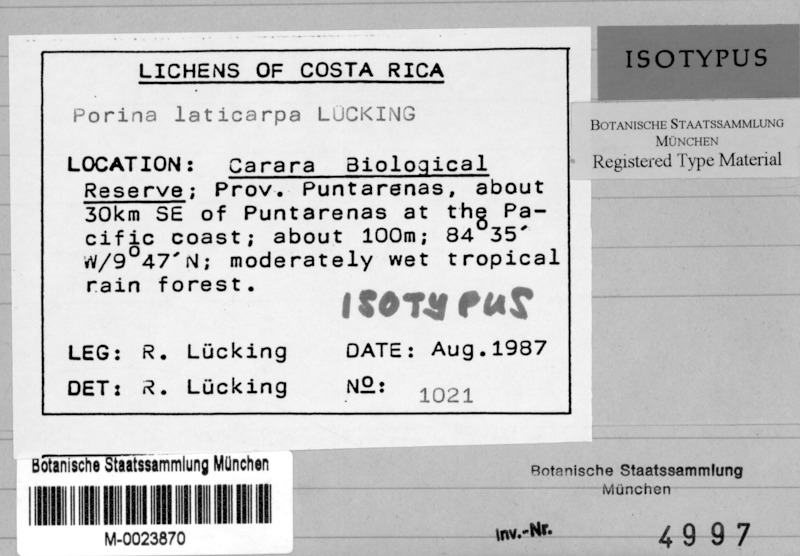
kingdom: Fungi
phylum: Ascomycota
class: Lecanoromycetes
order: Ostropales
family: Porinaceae
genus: Porina
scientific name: Porina repanda
